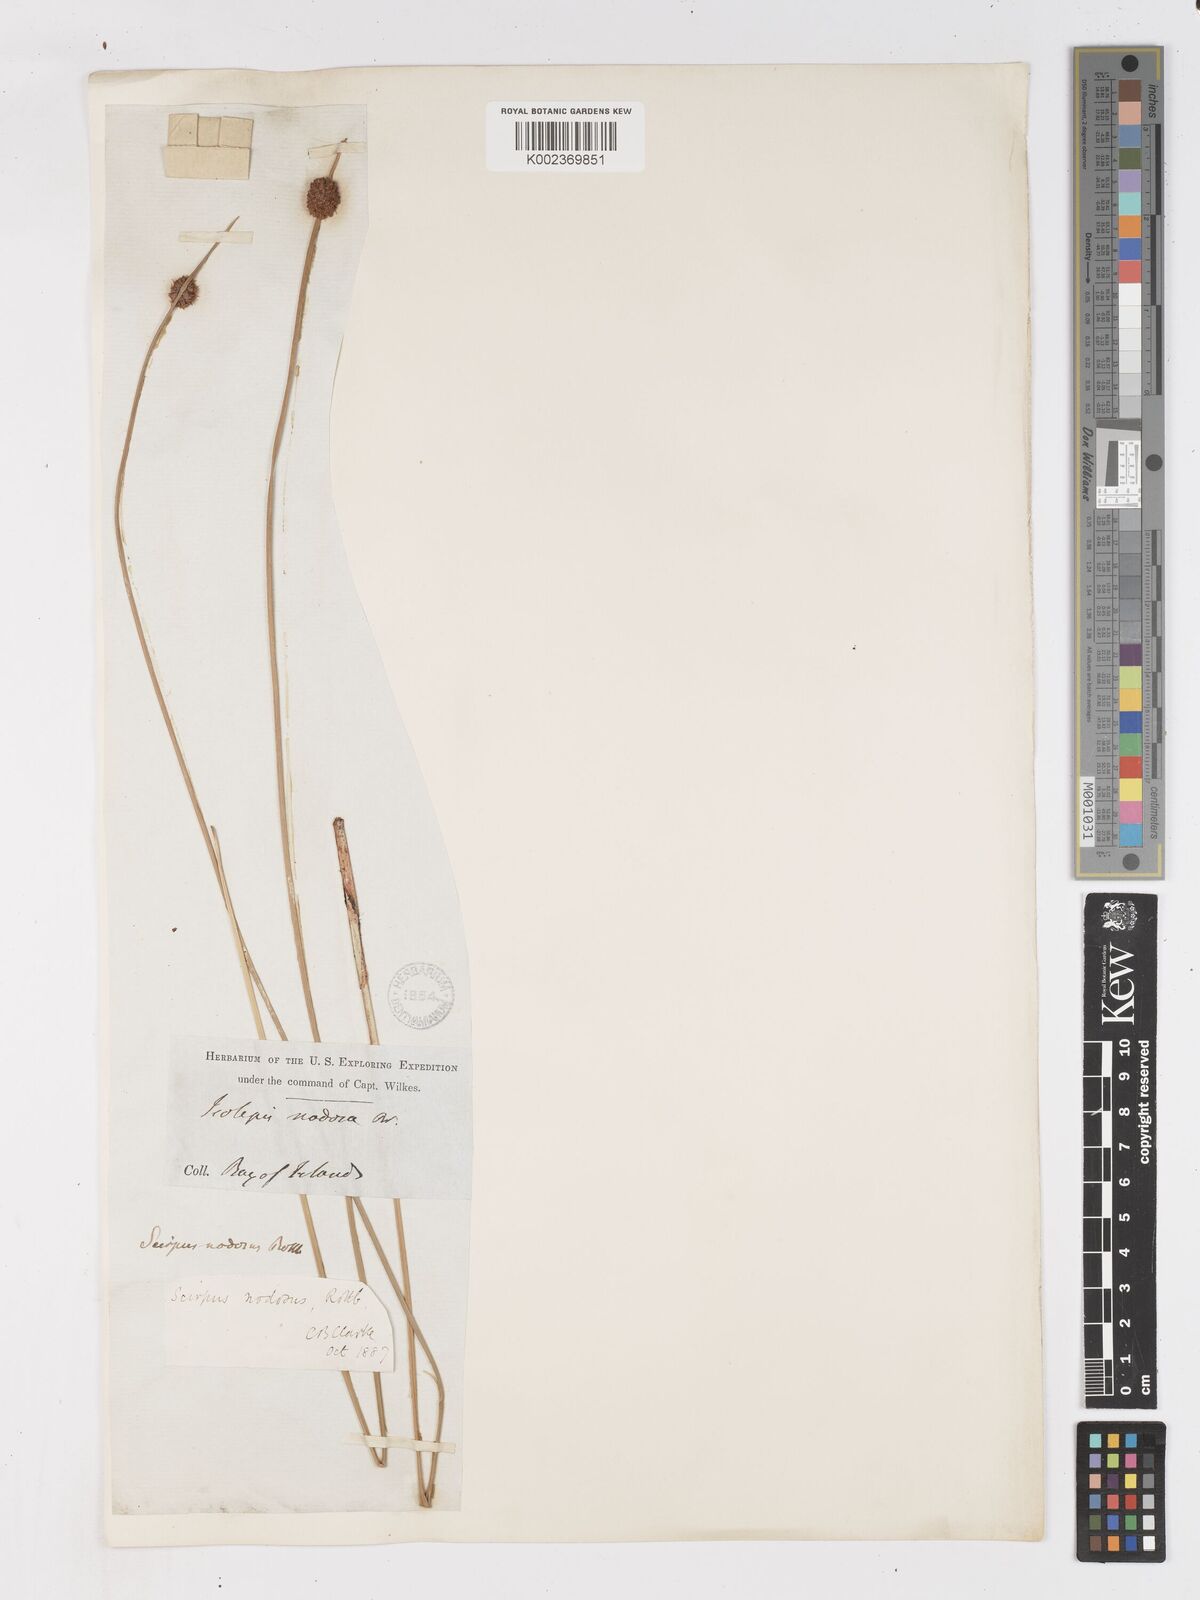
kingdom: Plantae
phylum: Tracheophyta
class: Liliopsida
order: Poales
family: Cyperaceae
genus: Ficinia
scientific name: Ficinia nodosa
